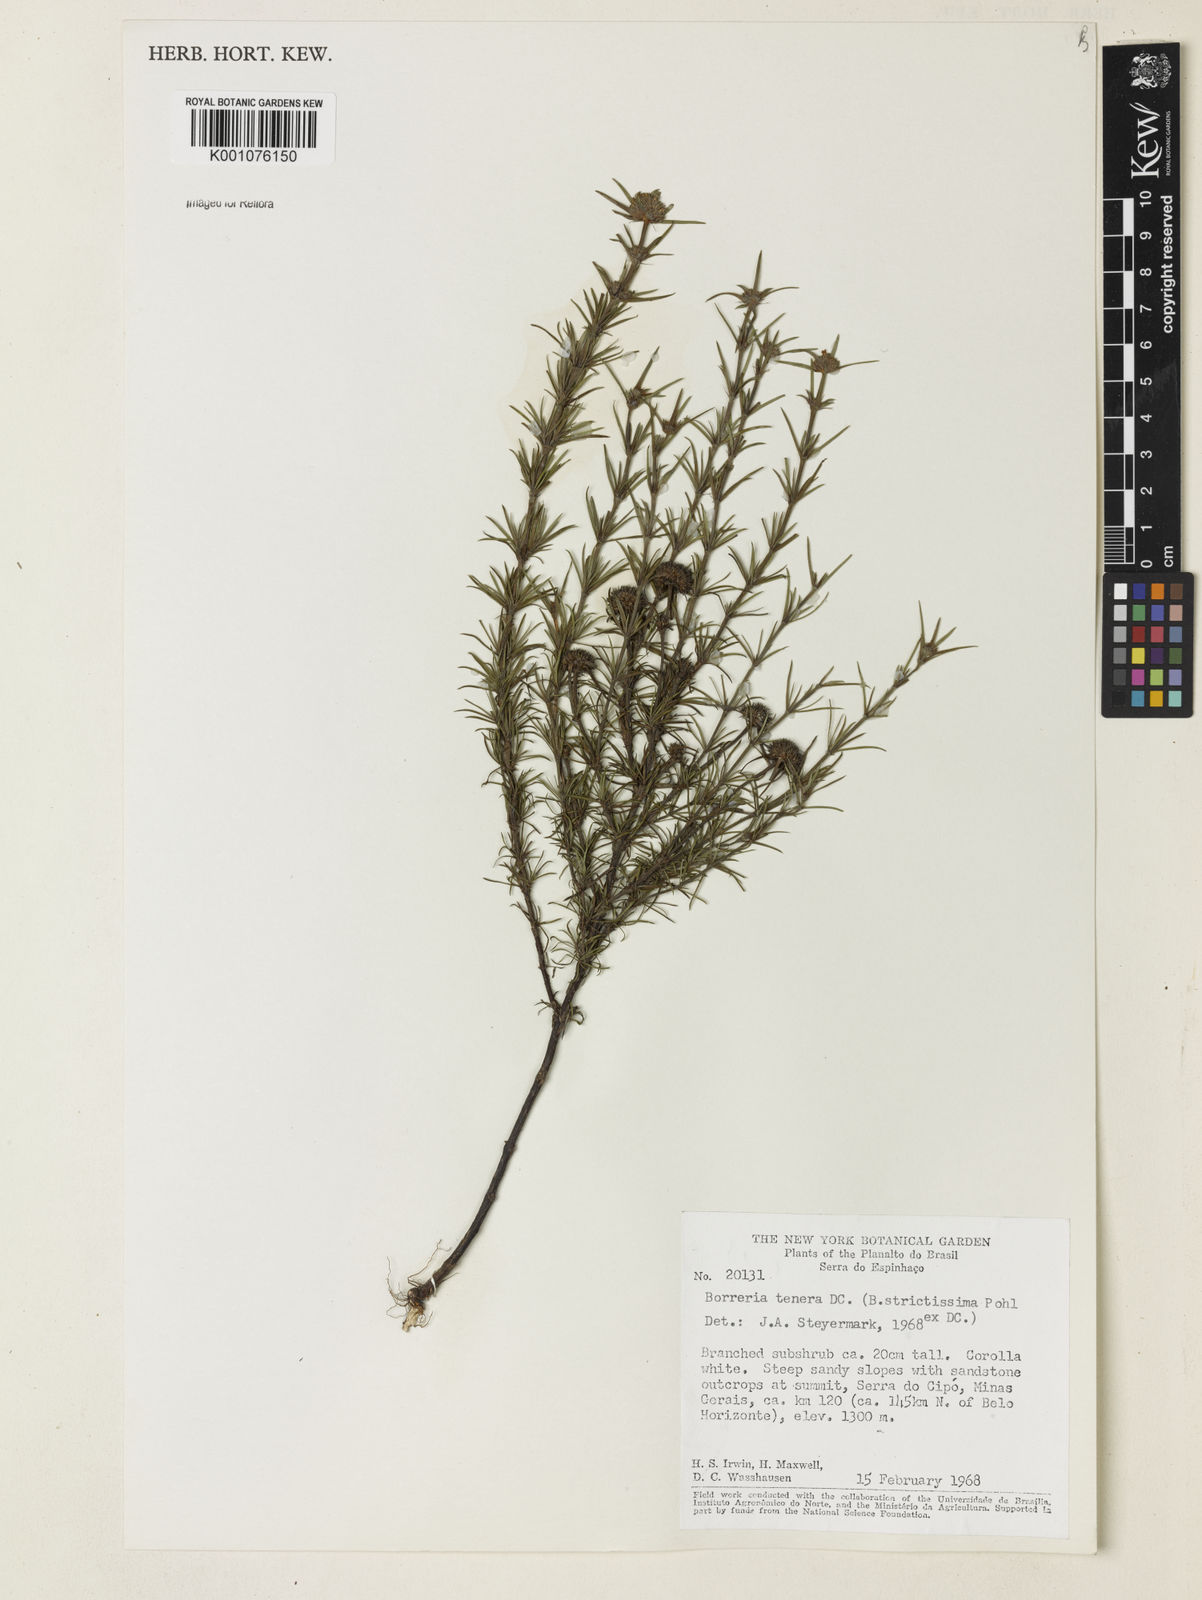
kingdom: Plantae
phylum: Tracheophyta
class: Magnoliopsida
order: Gentianales
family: Rubiaceae
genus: Spermacoce
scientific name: Spermacoce ocymoides
